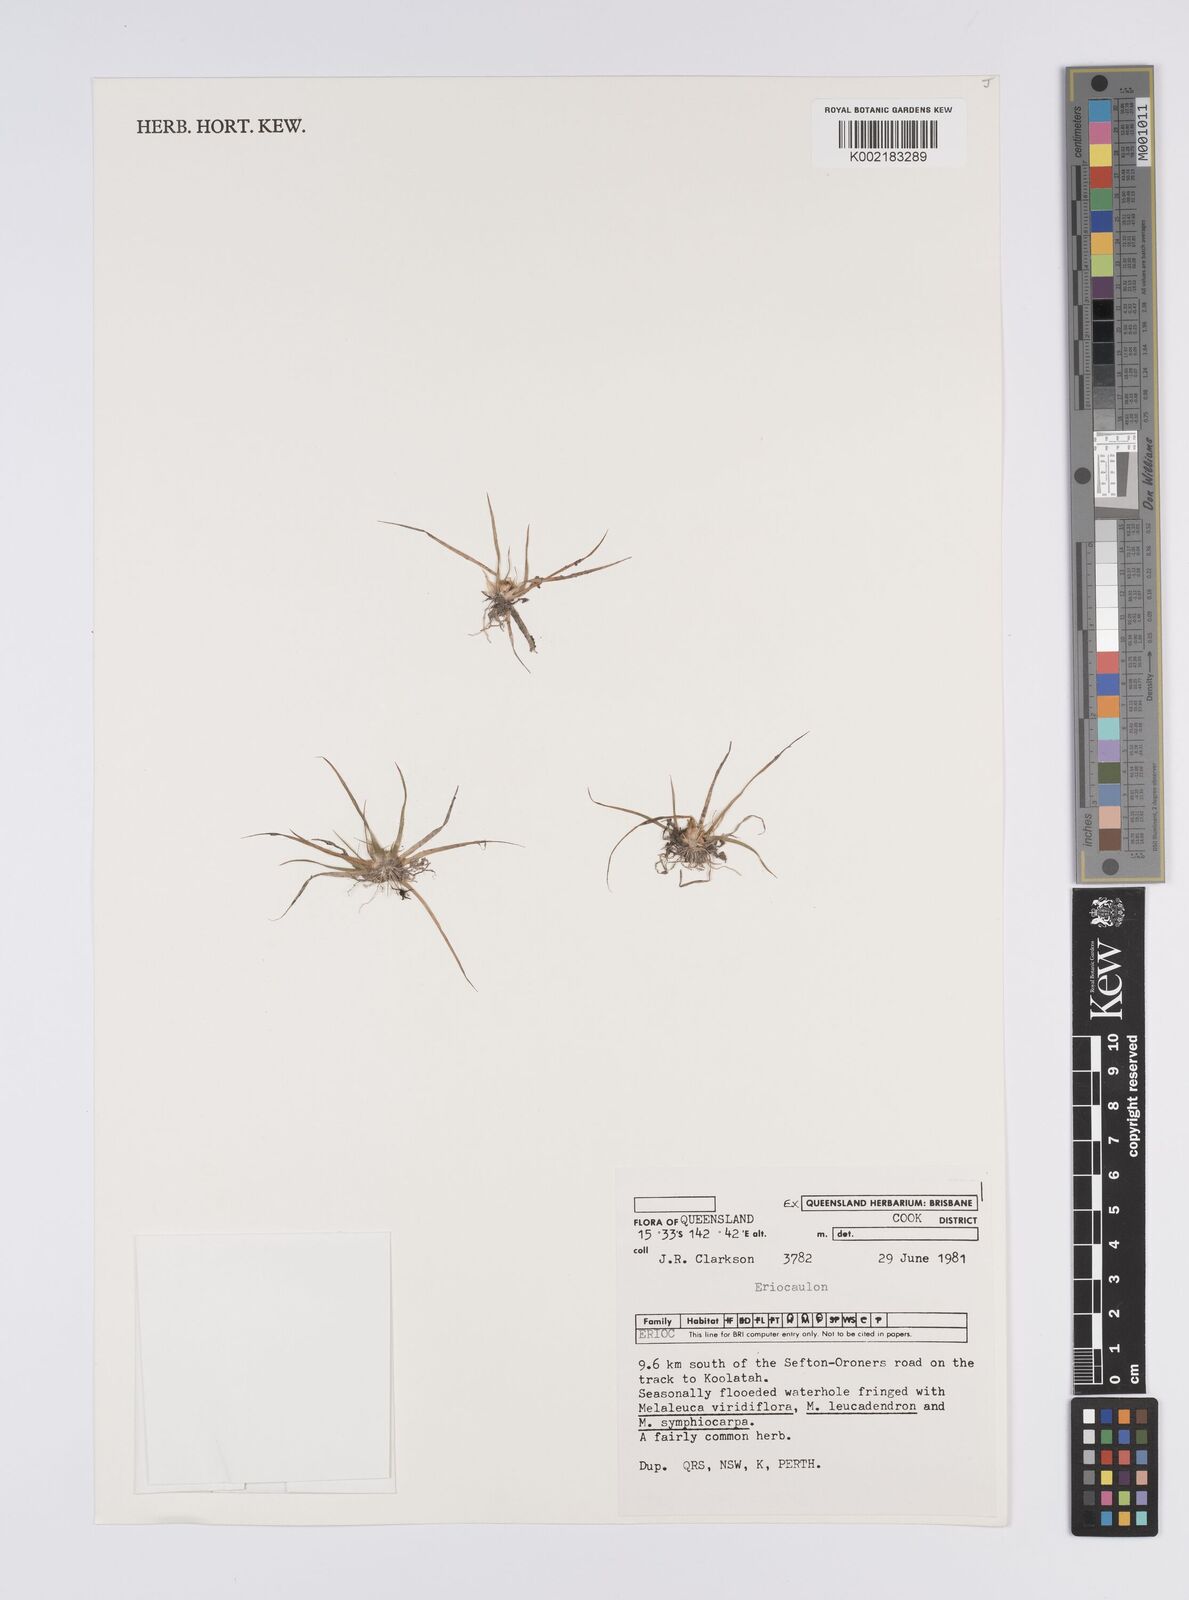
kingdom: Plantae
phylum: Tracheophyta
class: Liliopsida
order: Poales
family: Eriocaulaceae
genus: Eriocaulon
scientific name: Eriocaulon
